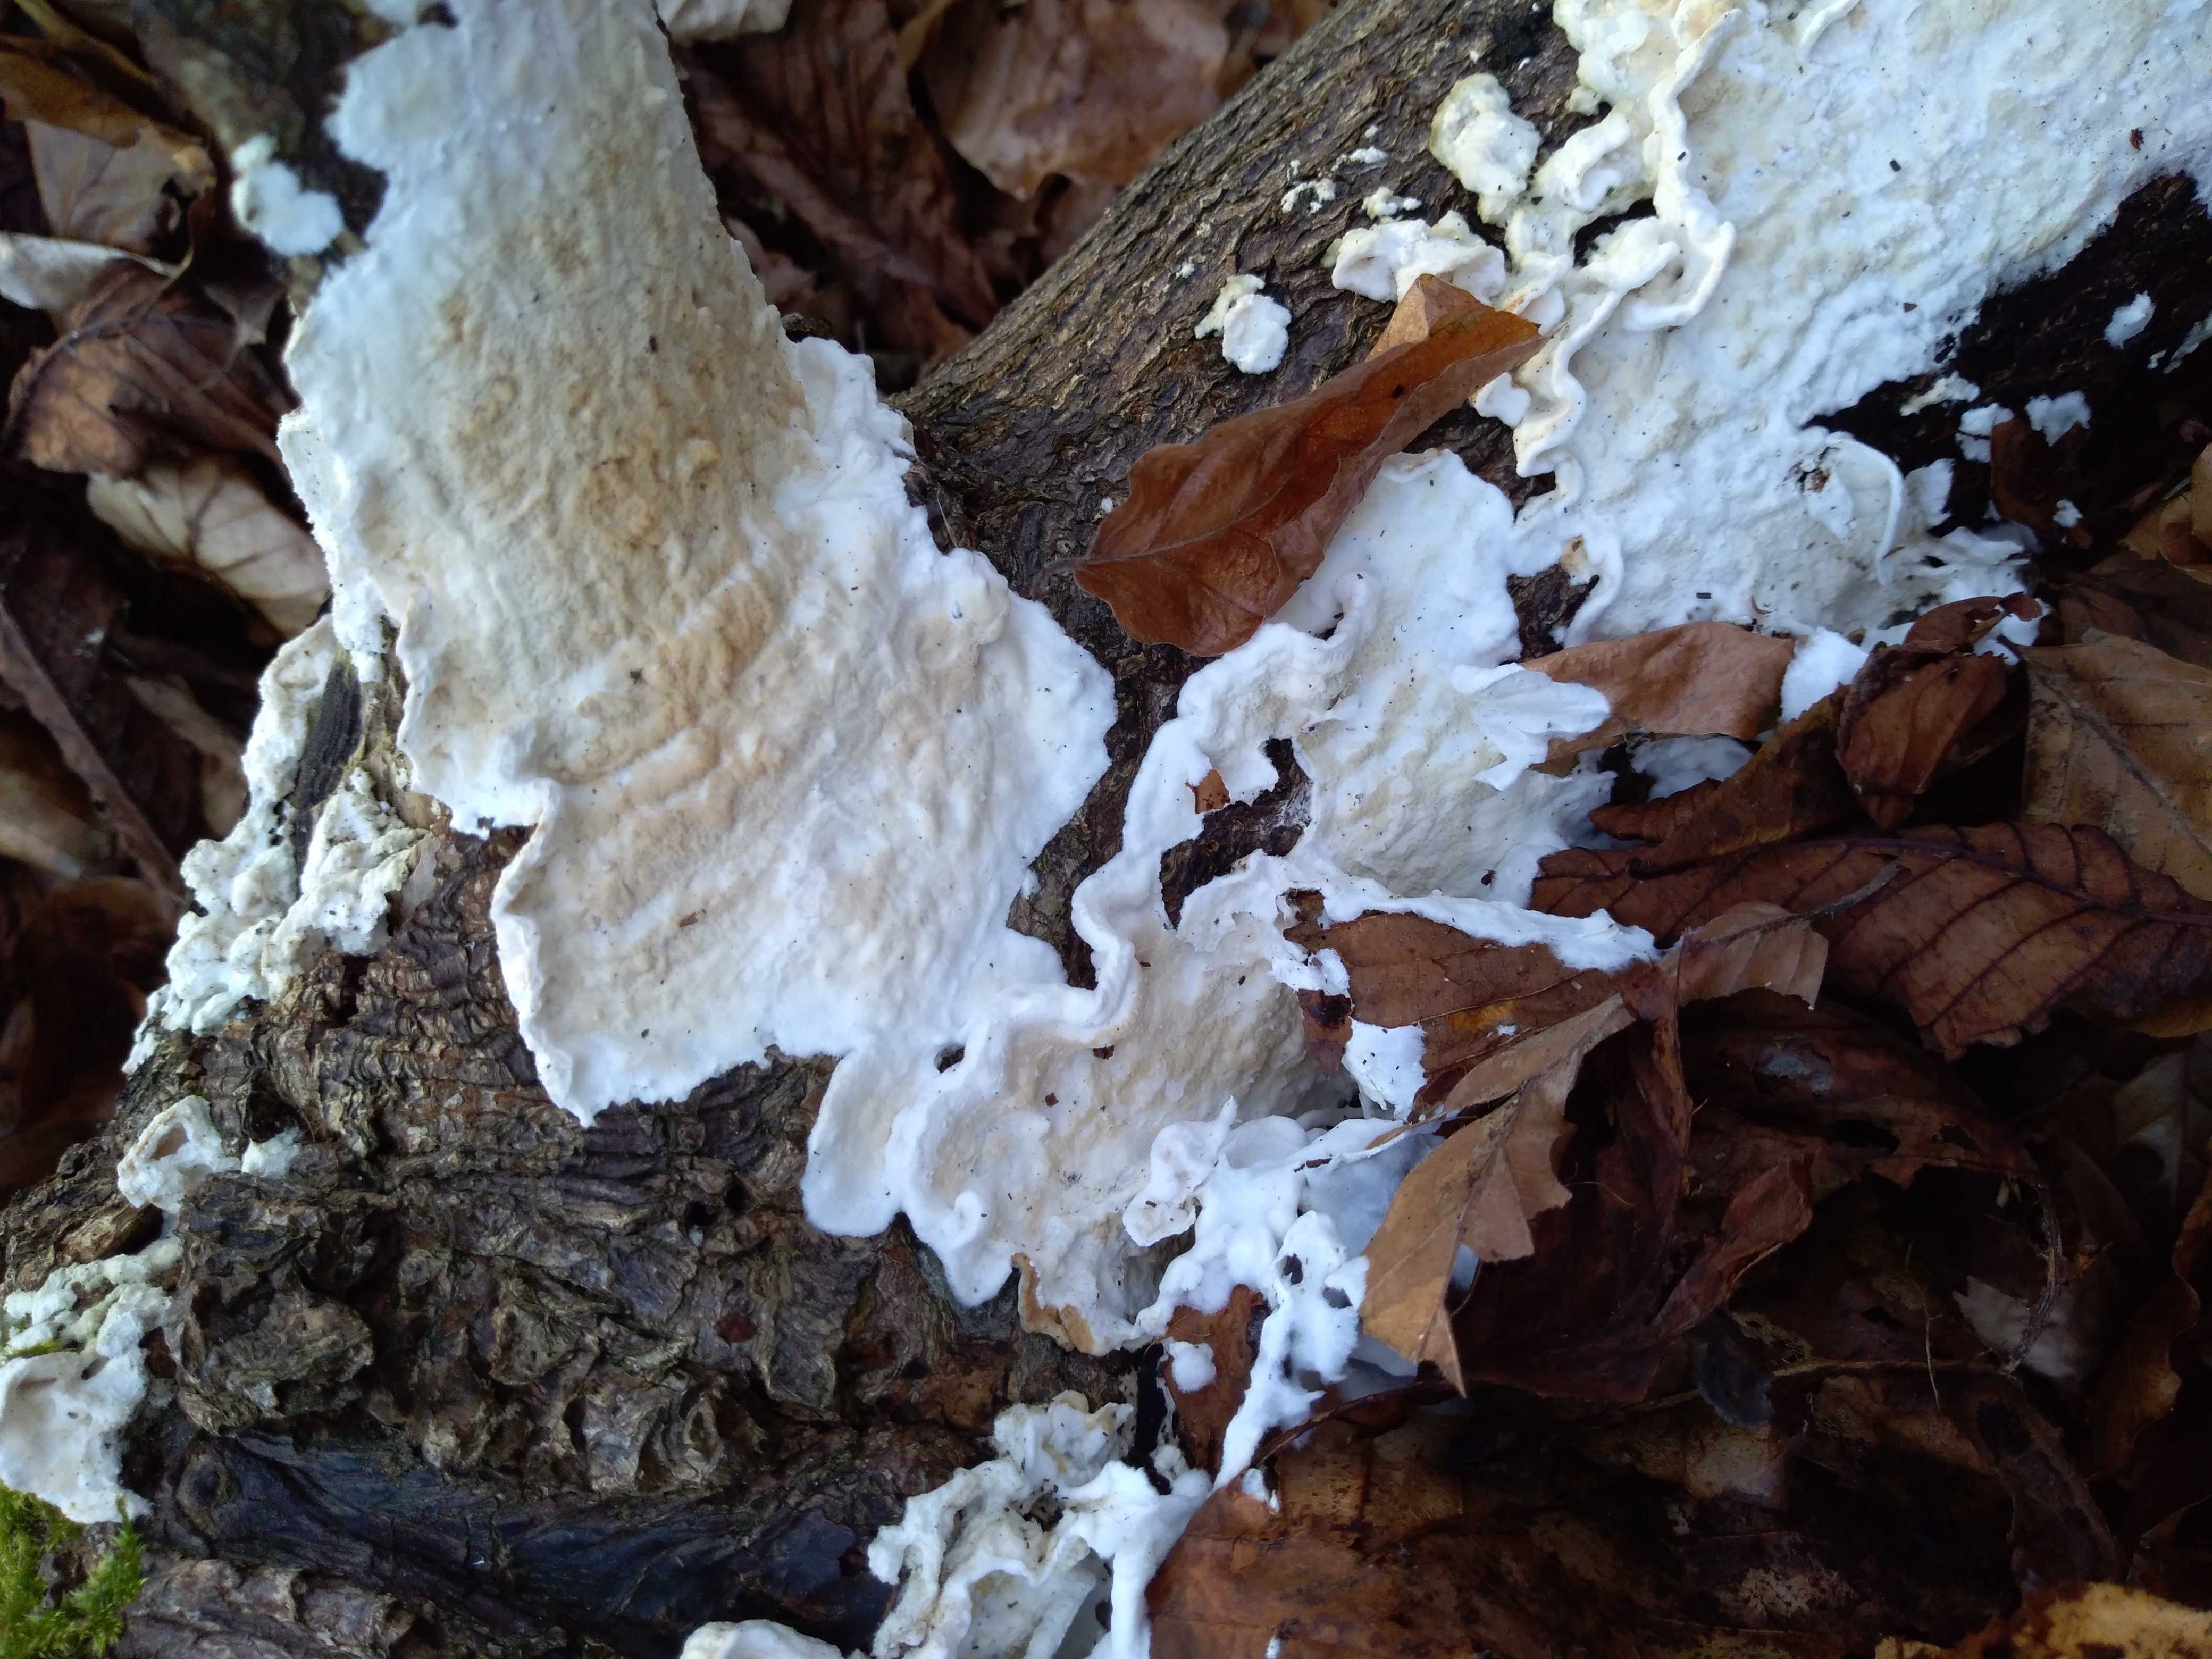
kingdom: Fungi
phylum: Basidiomycota
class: Agaricomycetes
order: Polyporales
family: Irpicaceae
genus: Byssomerulius
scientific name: Byssomerulius corium
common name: læder-åresvamp
